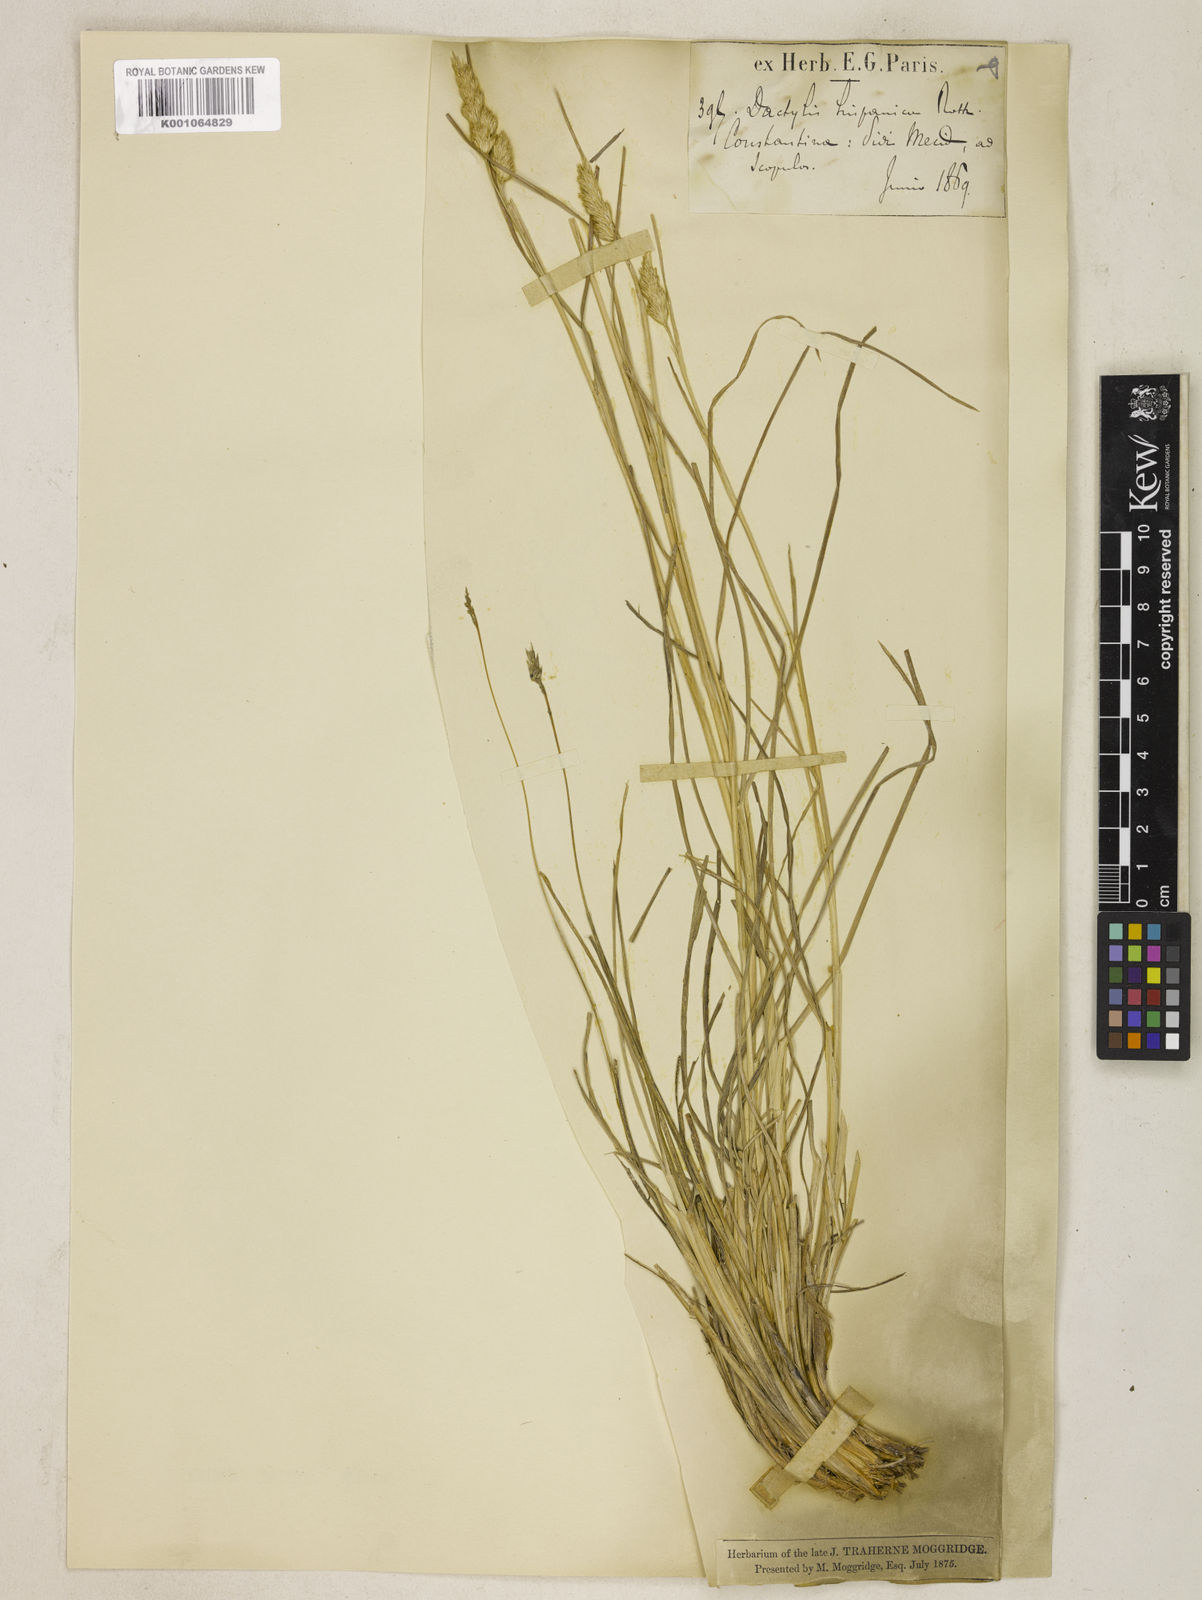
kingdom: Plantae
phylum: Tracheophyta
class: Liliopsida
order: Poales
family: Poaceae
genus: Dactylis
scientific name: Dactylis glomerata
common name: Orchardgrass
